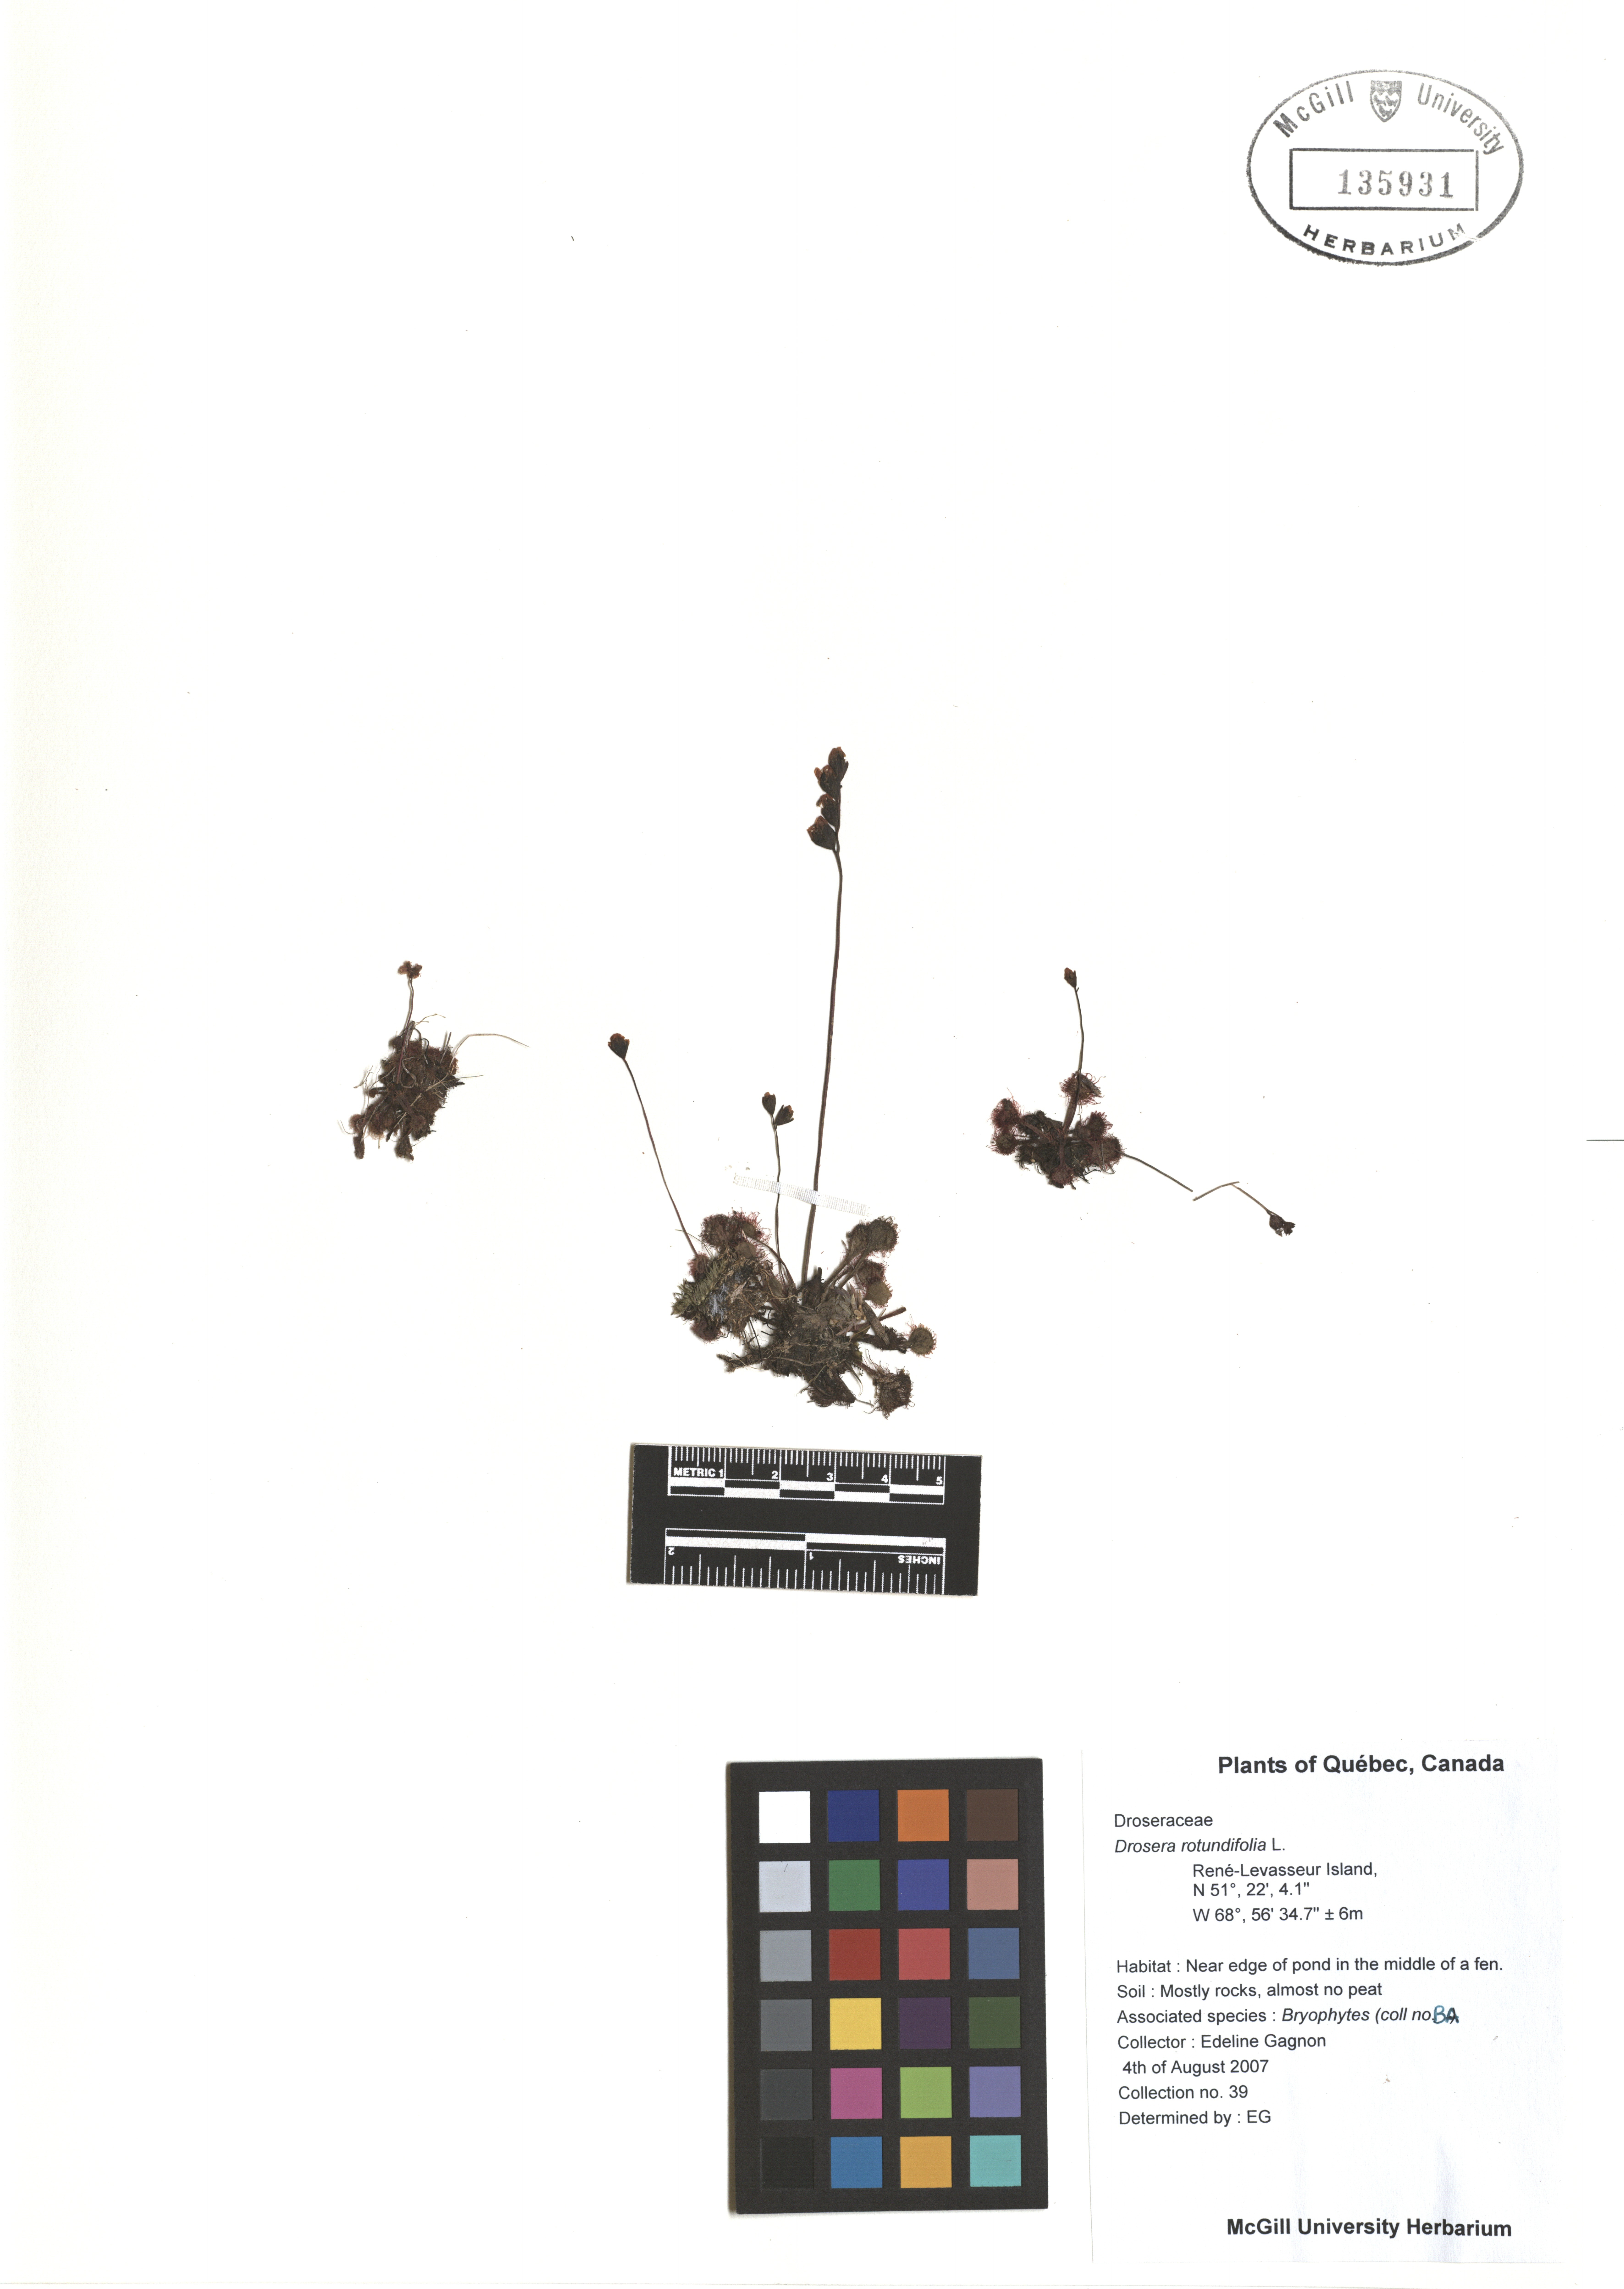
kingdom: Plantae
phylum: Tracheophyta
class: Magnoliopsida
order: Caryophyllales
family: Droseraceae
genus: Drosera
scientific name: Drosera rotundifolia
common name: Round-leaved sundew
